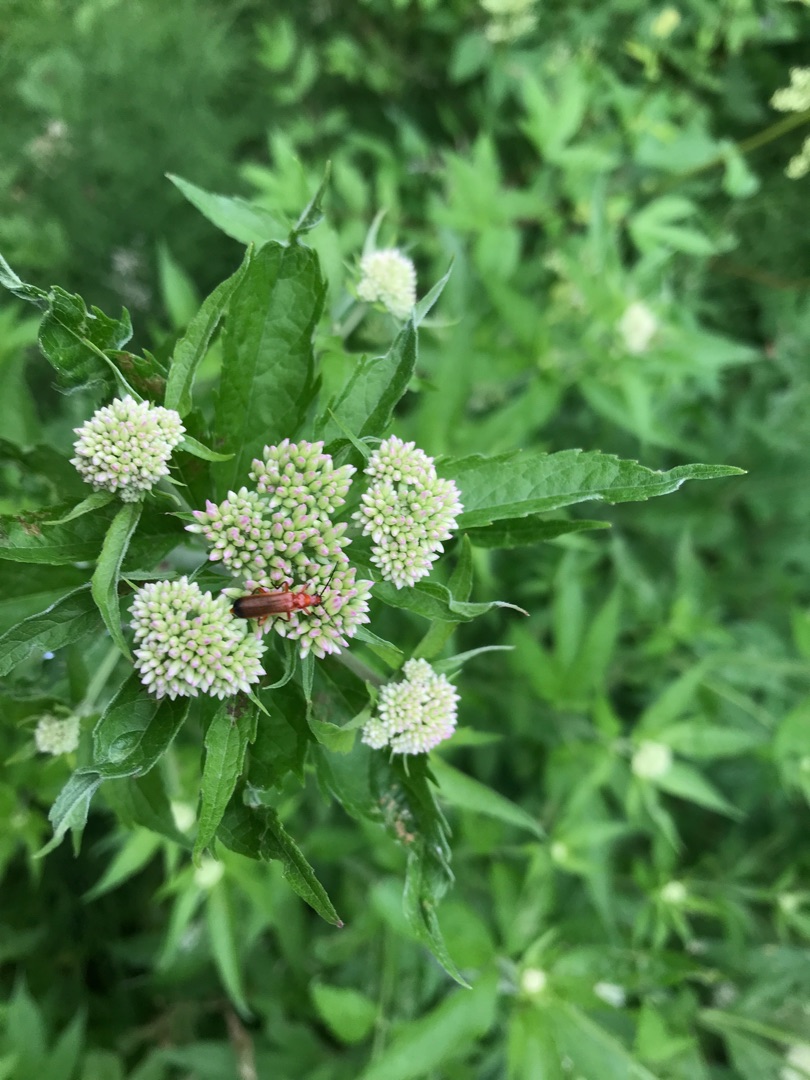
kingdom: Animalia
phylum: Arthropoda
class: Insecta
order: Coleoptera
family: Cantharidae
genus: Rhagonycha
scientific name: Rhagonycha fulva
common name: Præstebille
